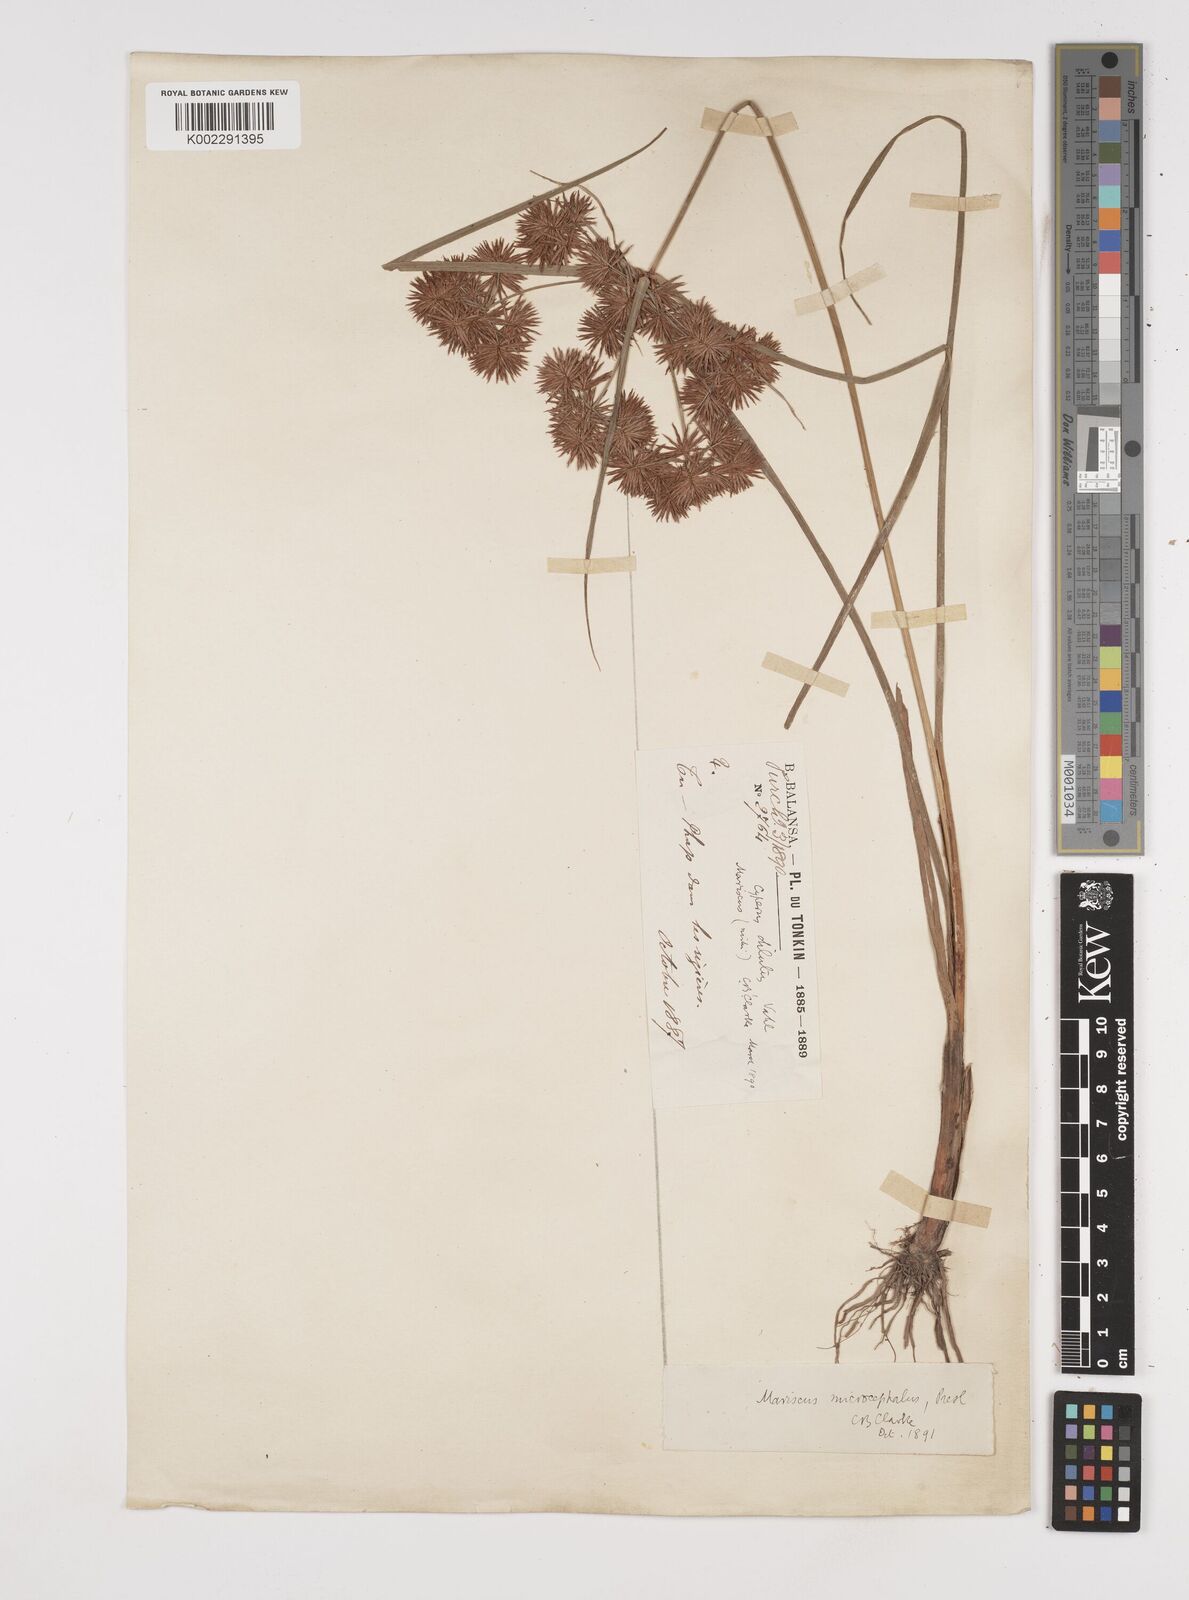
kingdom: Plantae
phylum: Tracheophyta
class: Liliopsida
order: Poales
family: Cyperaceae
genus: Cyperus
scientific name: Cyperus compactus
